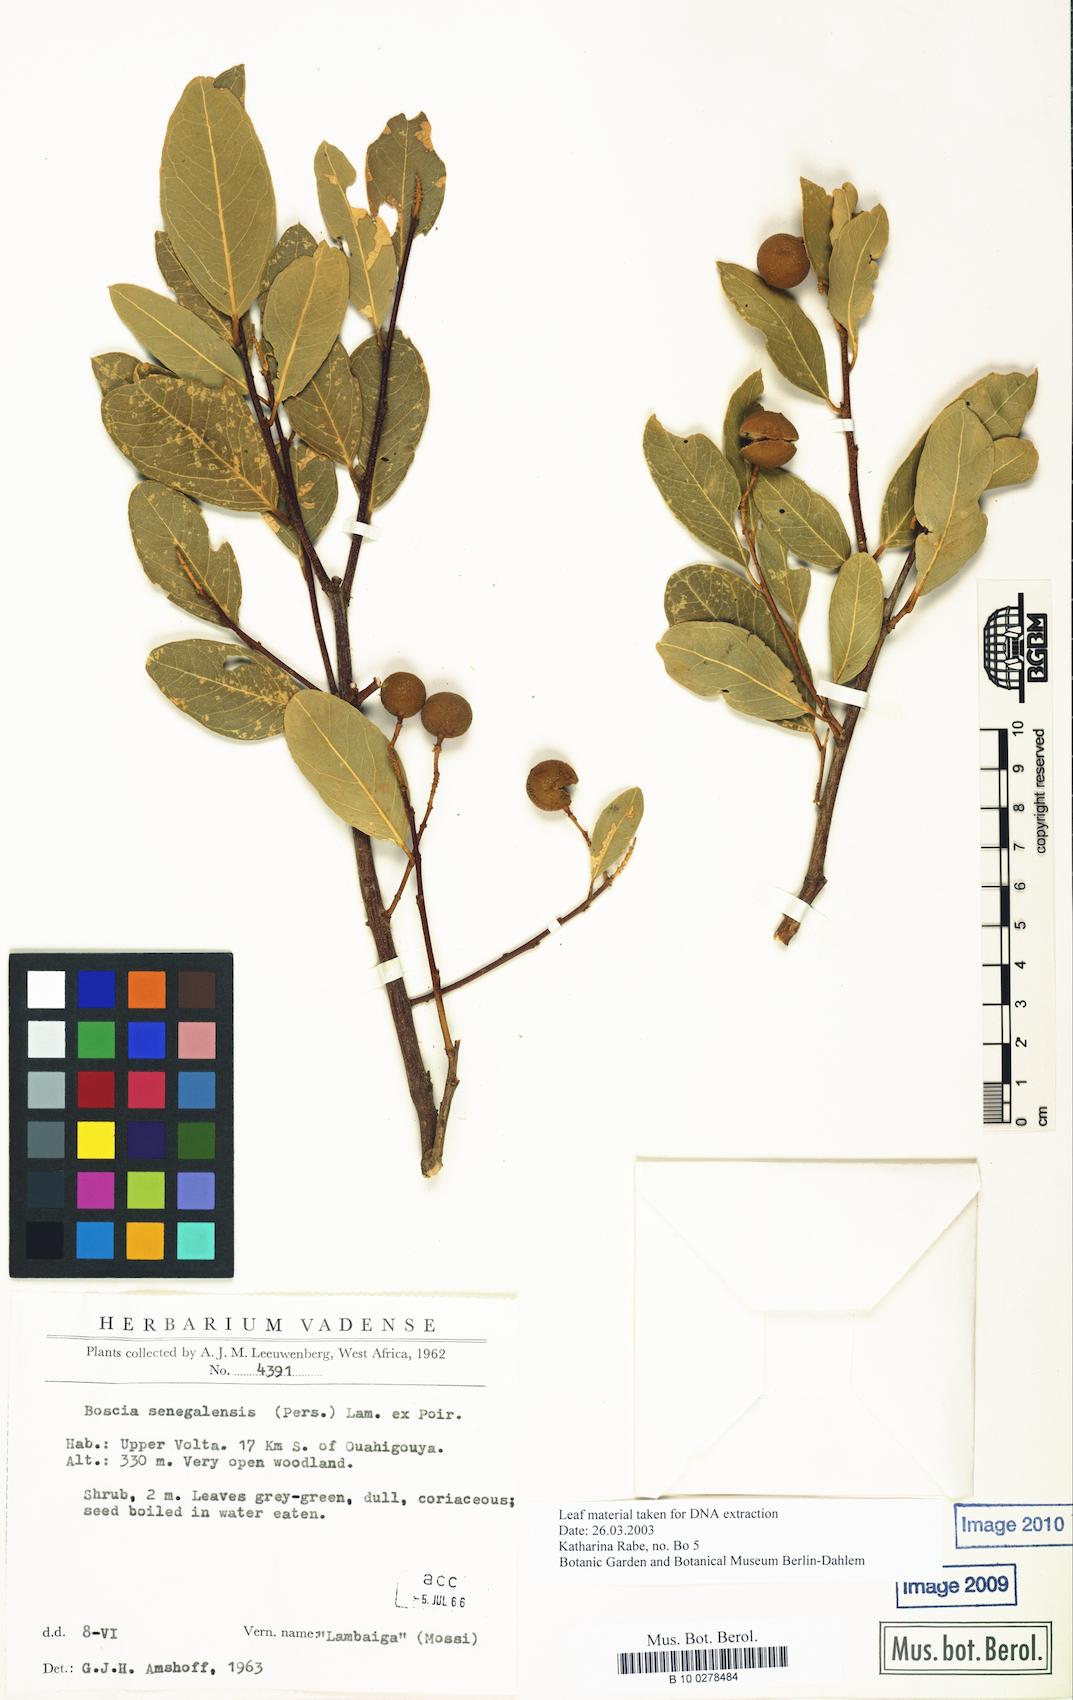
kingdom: Plantae
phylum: Tracheophyta
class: Magnoliopsida
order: Brassicales
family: Capparaceae
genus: Boscia
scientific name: Boscia senegalensis
